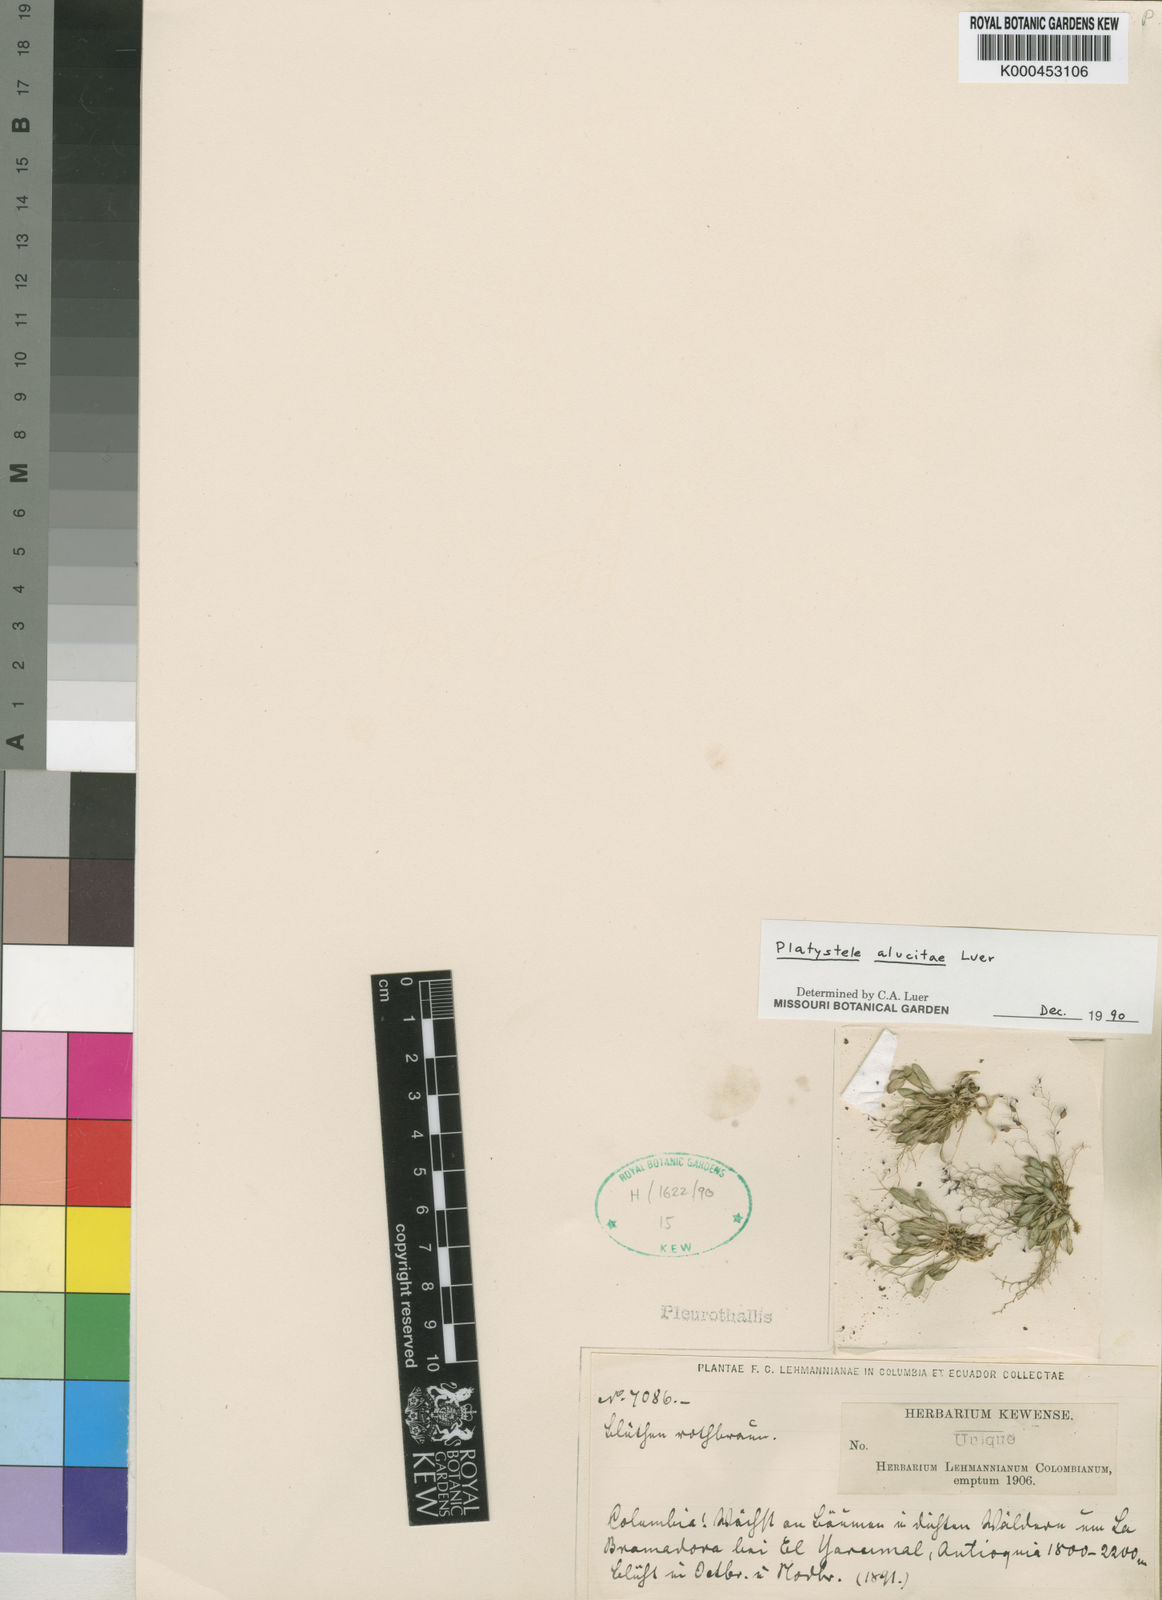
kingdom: Plantae
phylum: Tracheophyta
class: Liliopsida
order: Asparagales
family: Orchidaceae
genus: Platystele
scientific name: Platystele alucitae
